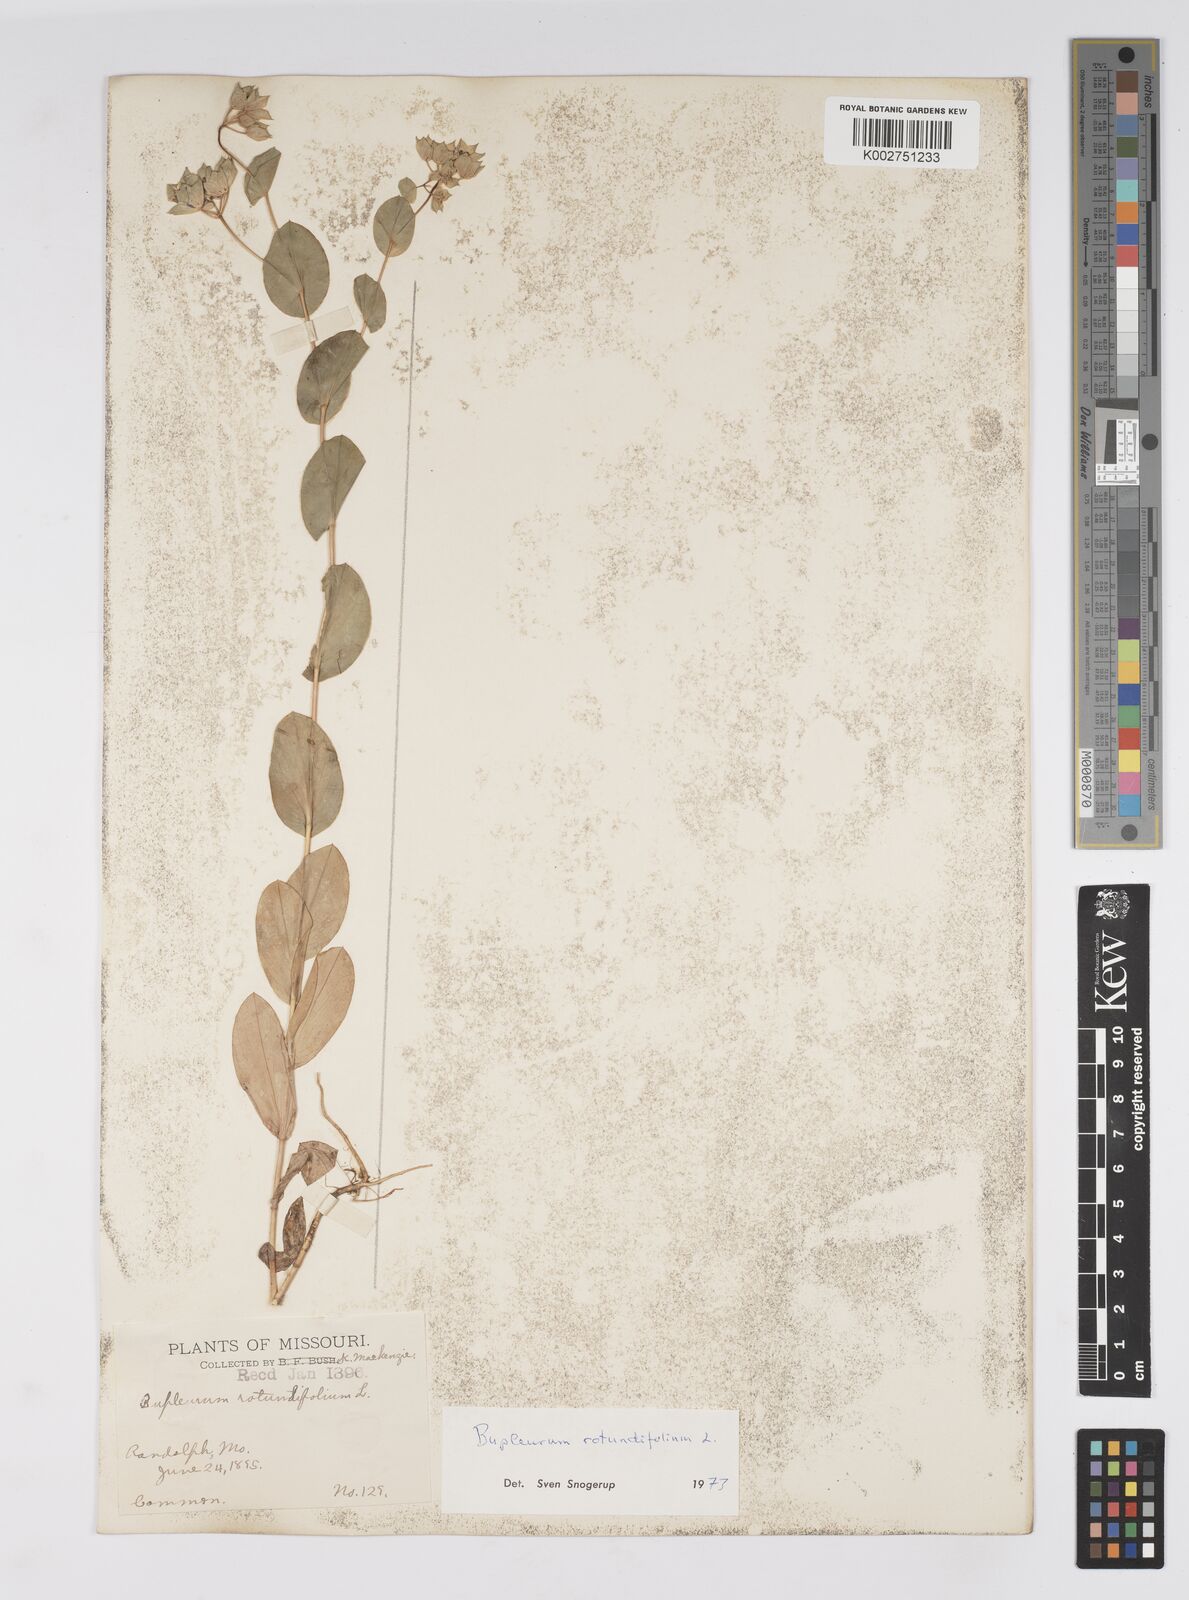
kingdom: Plantae
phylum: Tracheophyta
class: Magnoliopsida
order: Apiales
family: Apiaceae
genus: Bupleurum
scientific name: Bupleurum rotundifolium
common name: Thorow-wax
